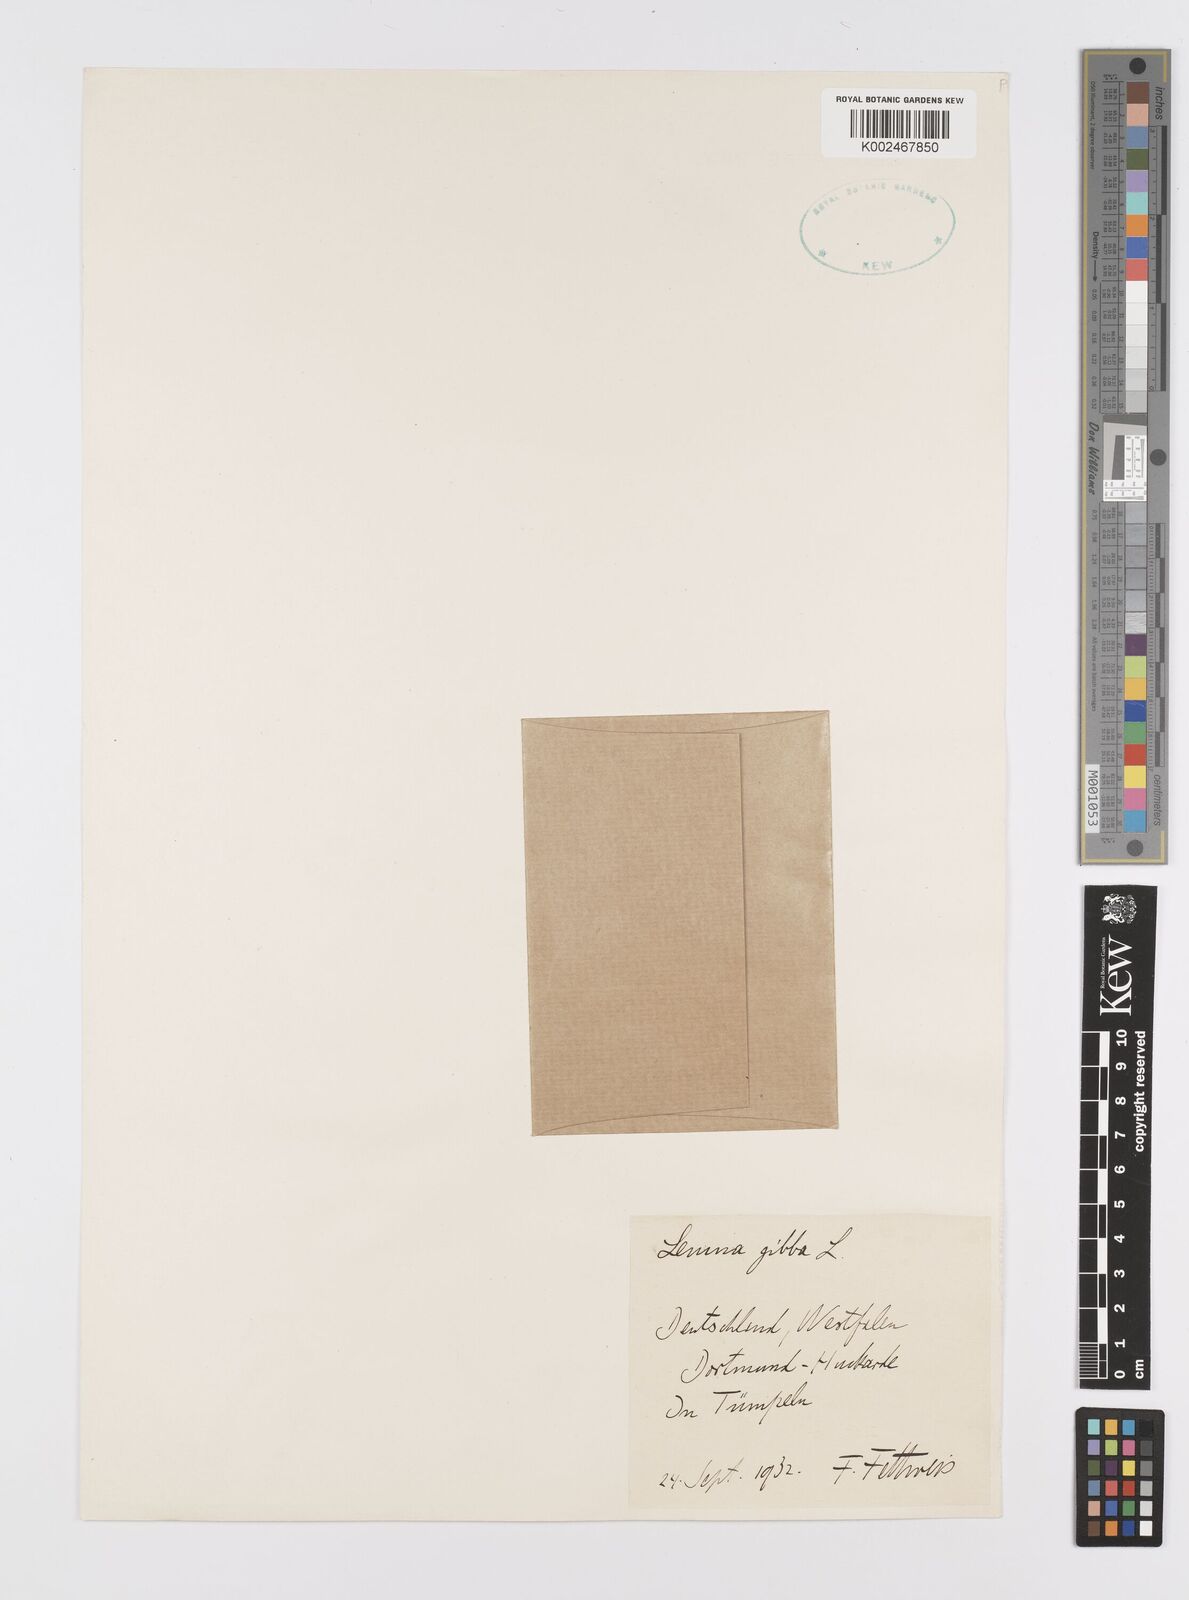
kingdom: Plantae
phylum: Tracheophyta
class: Liliopsida
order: Alismatales
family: Araceae
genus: Lemna
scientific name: Lemna gibba
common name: Fat duckweed
